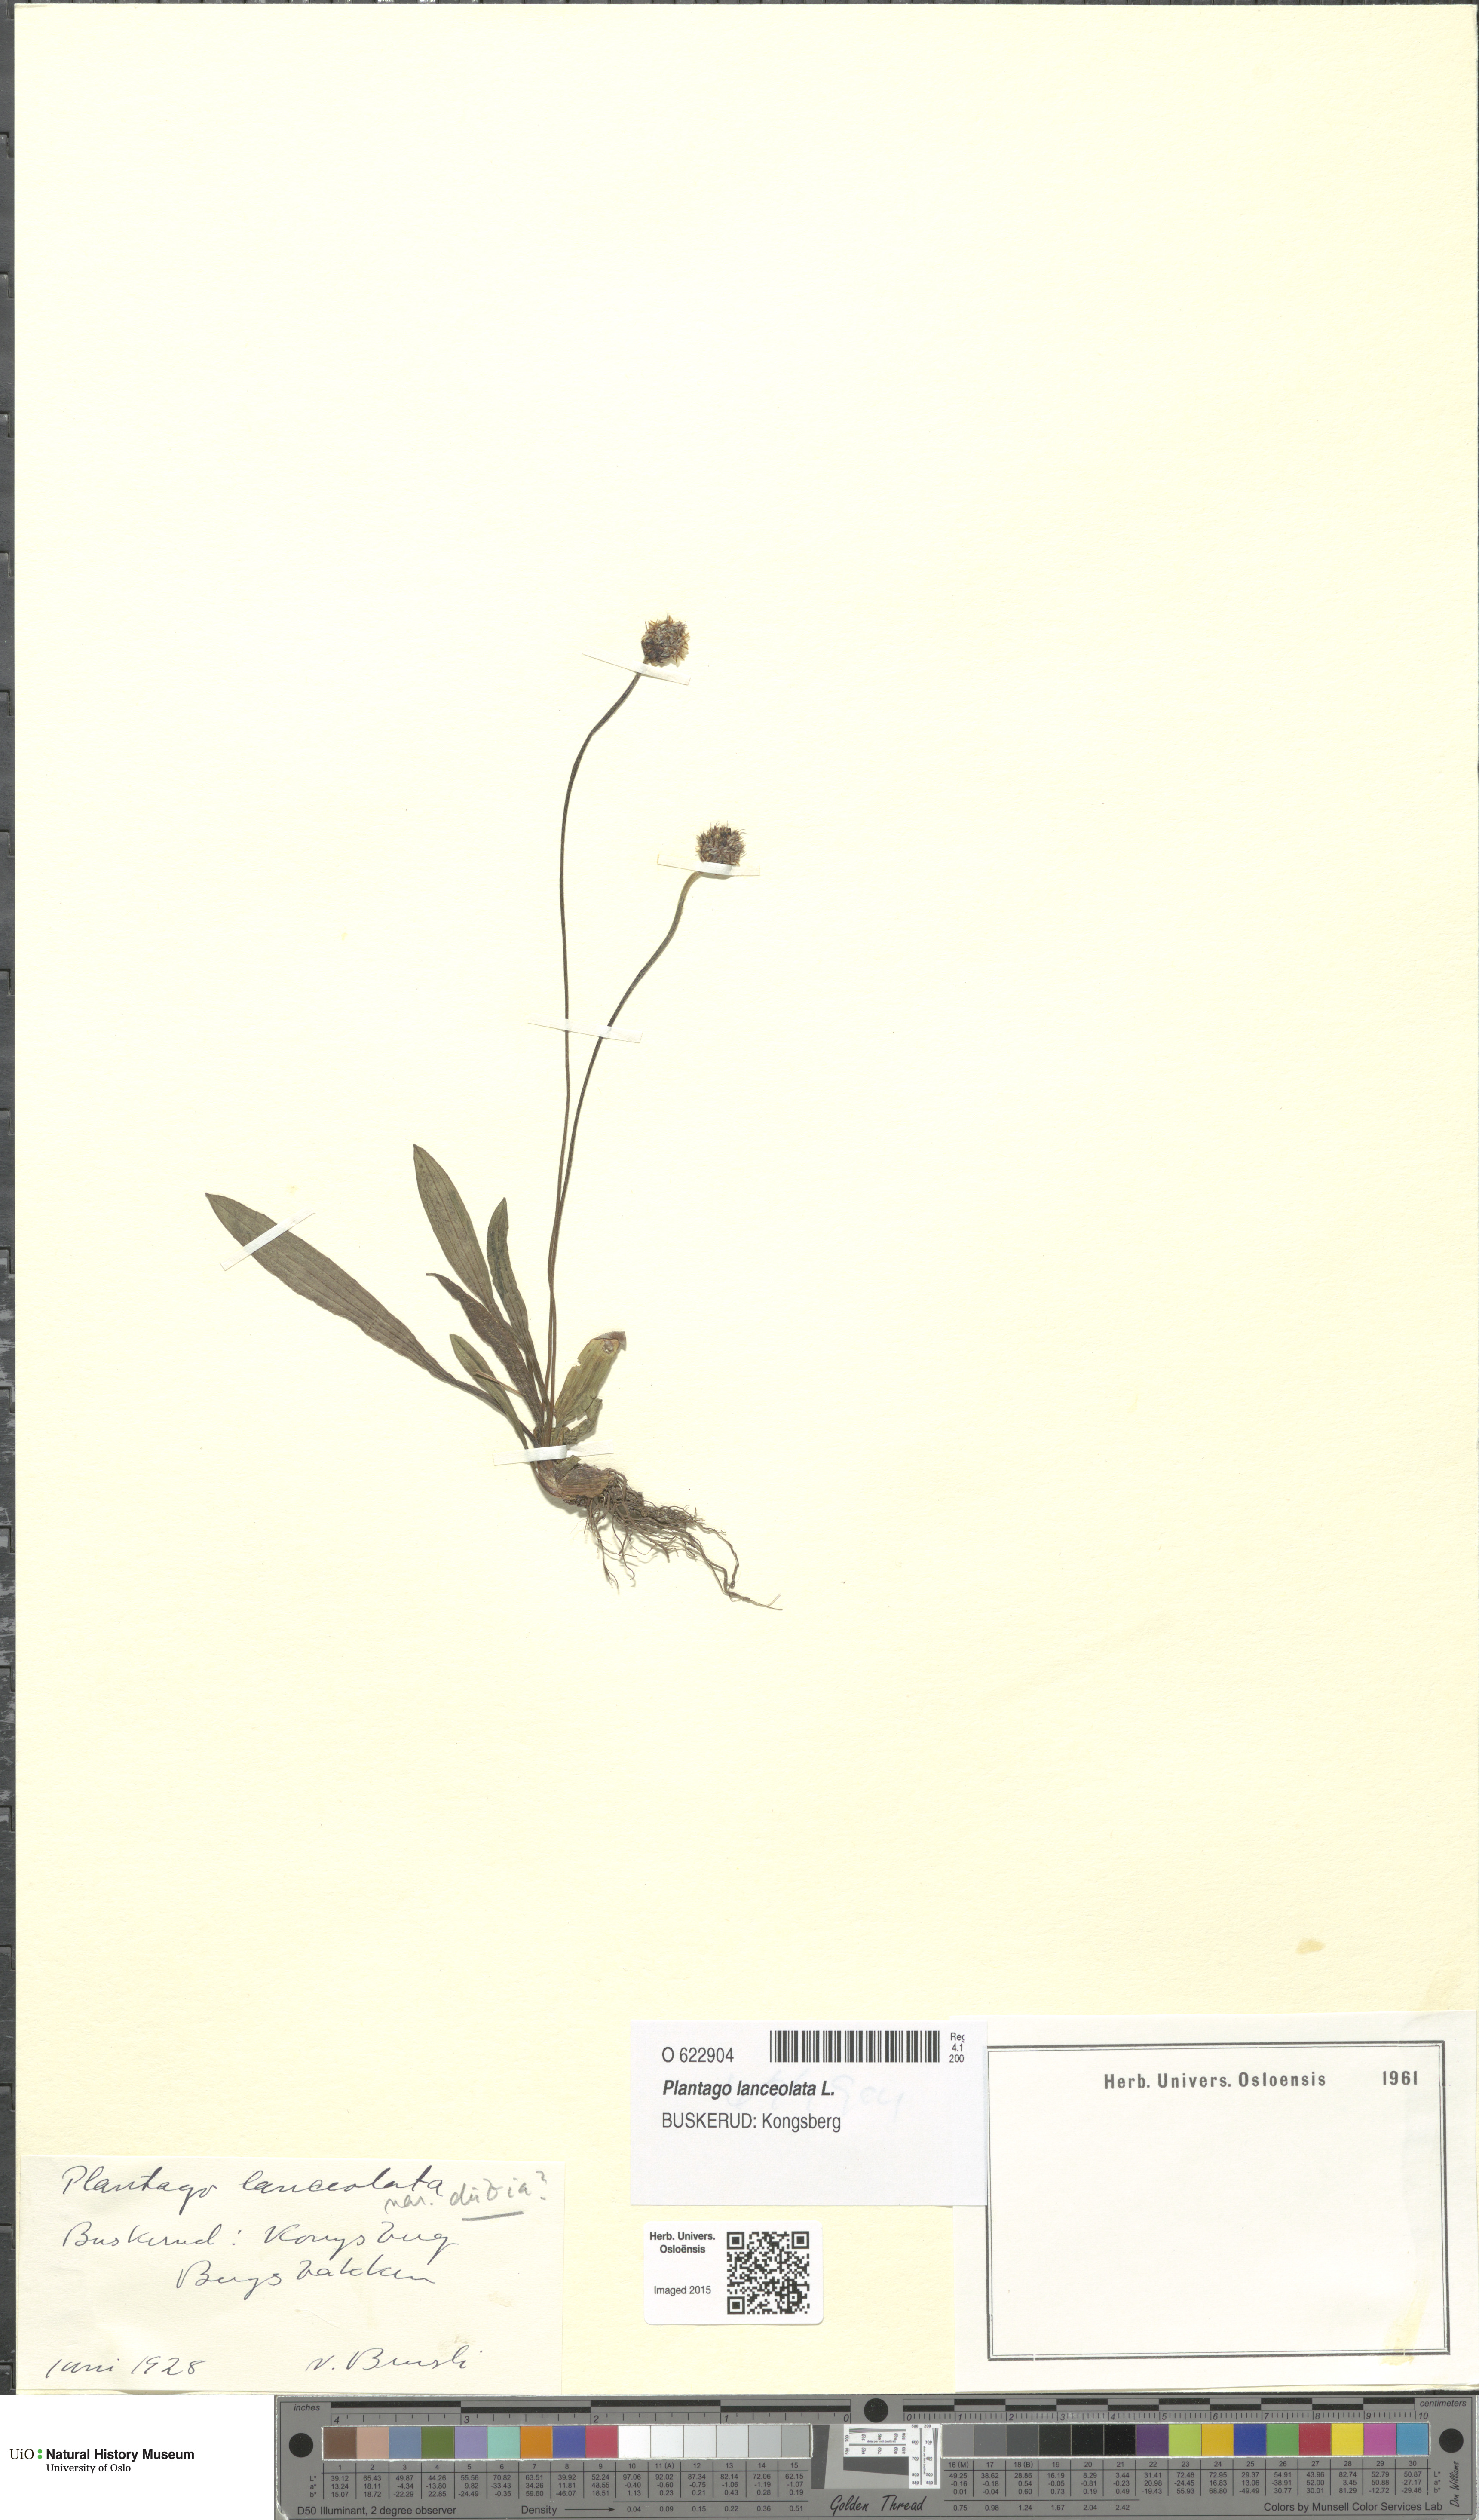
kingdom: Plantae
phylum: Tracheophyta
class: Magnoliopsida
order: Lamiales
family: Plantaginaceae
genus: Plantago
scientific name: Plantago lanceolata
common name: Ribwort plantain
